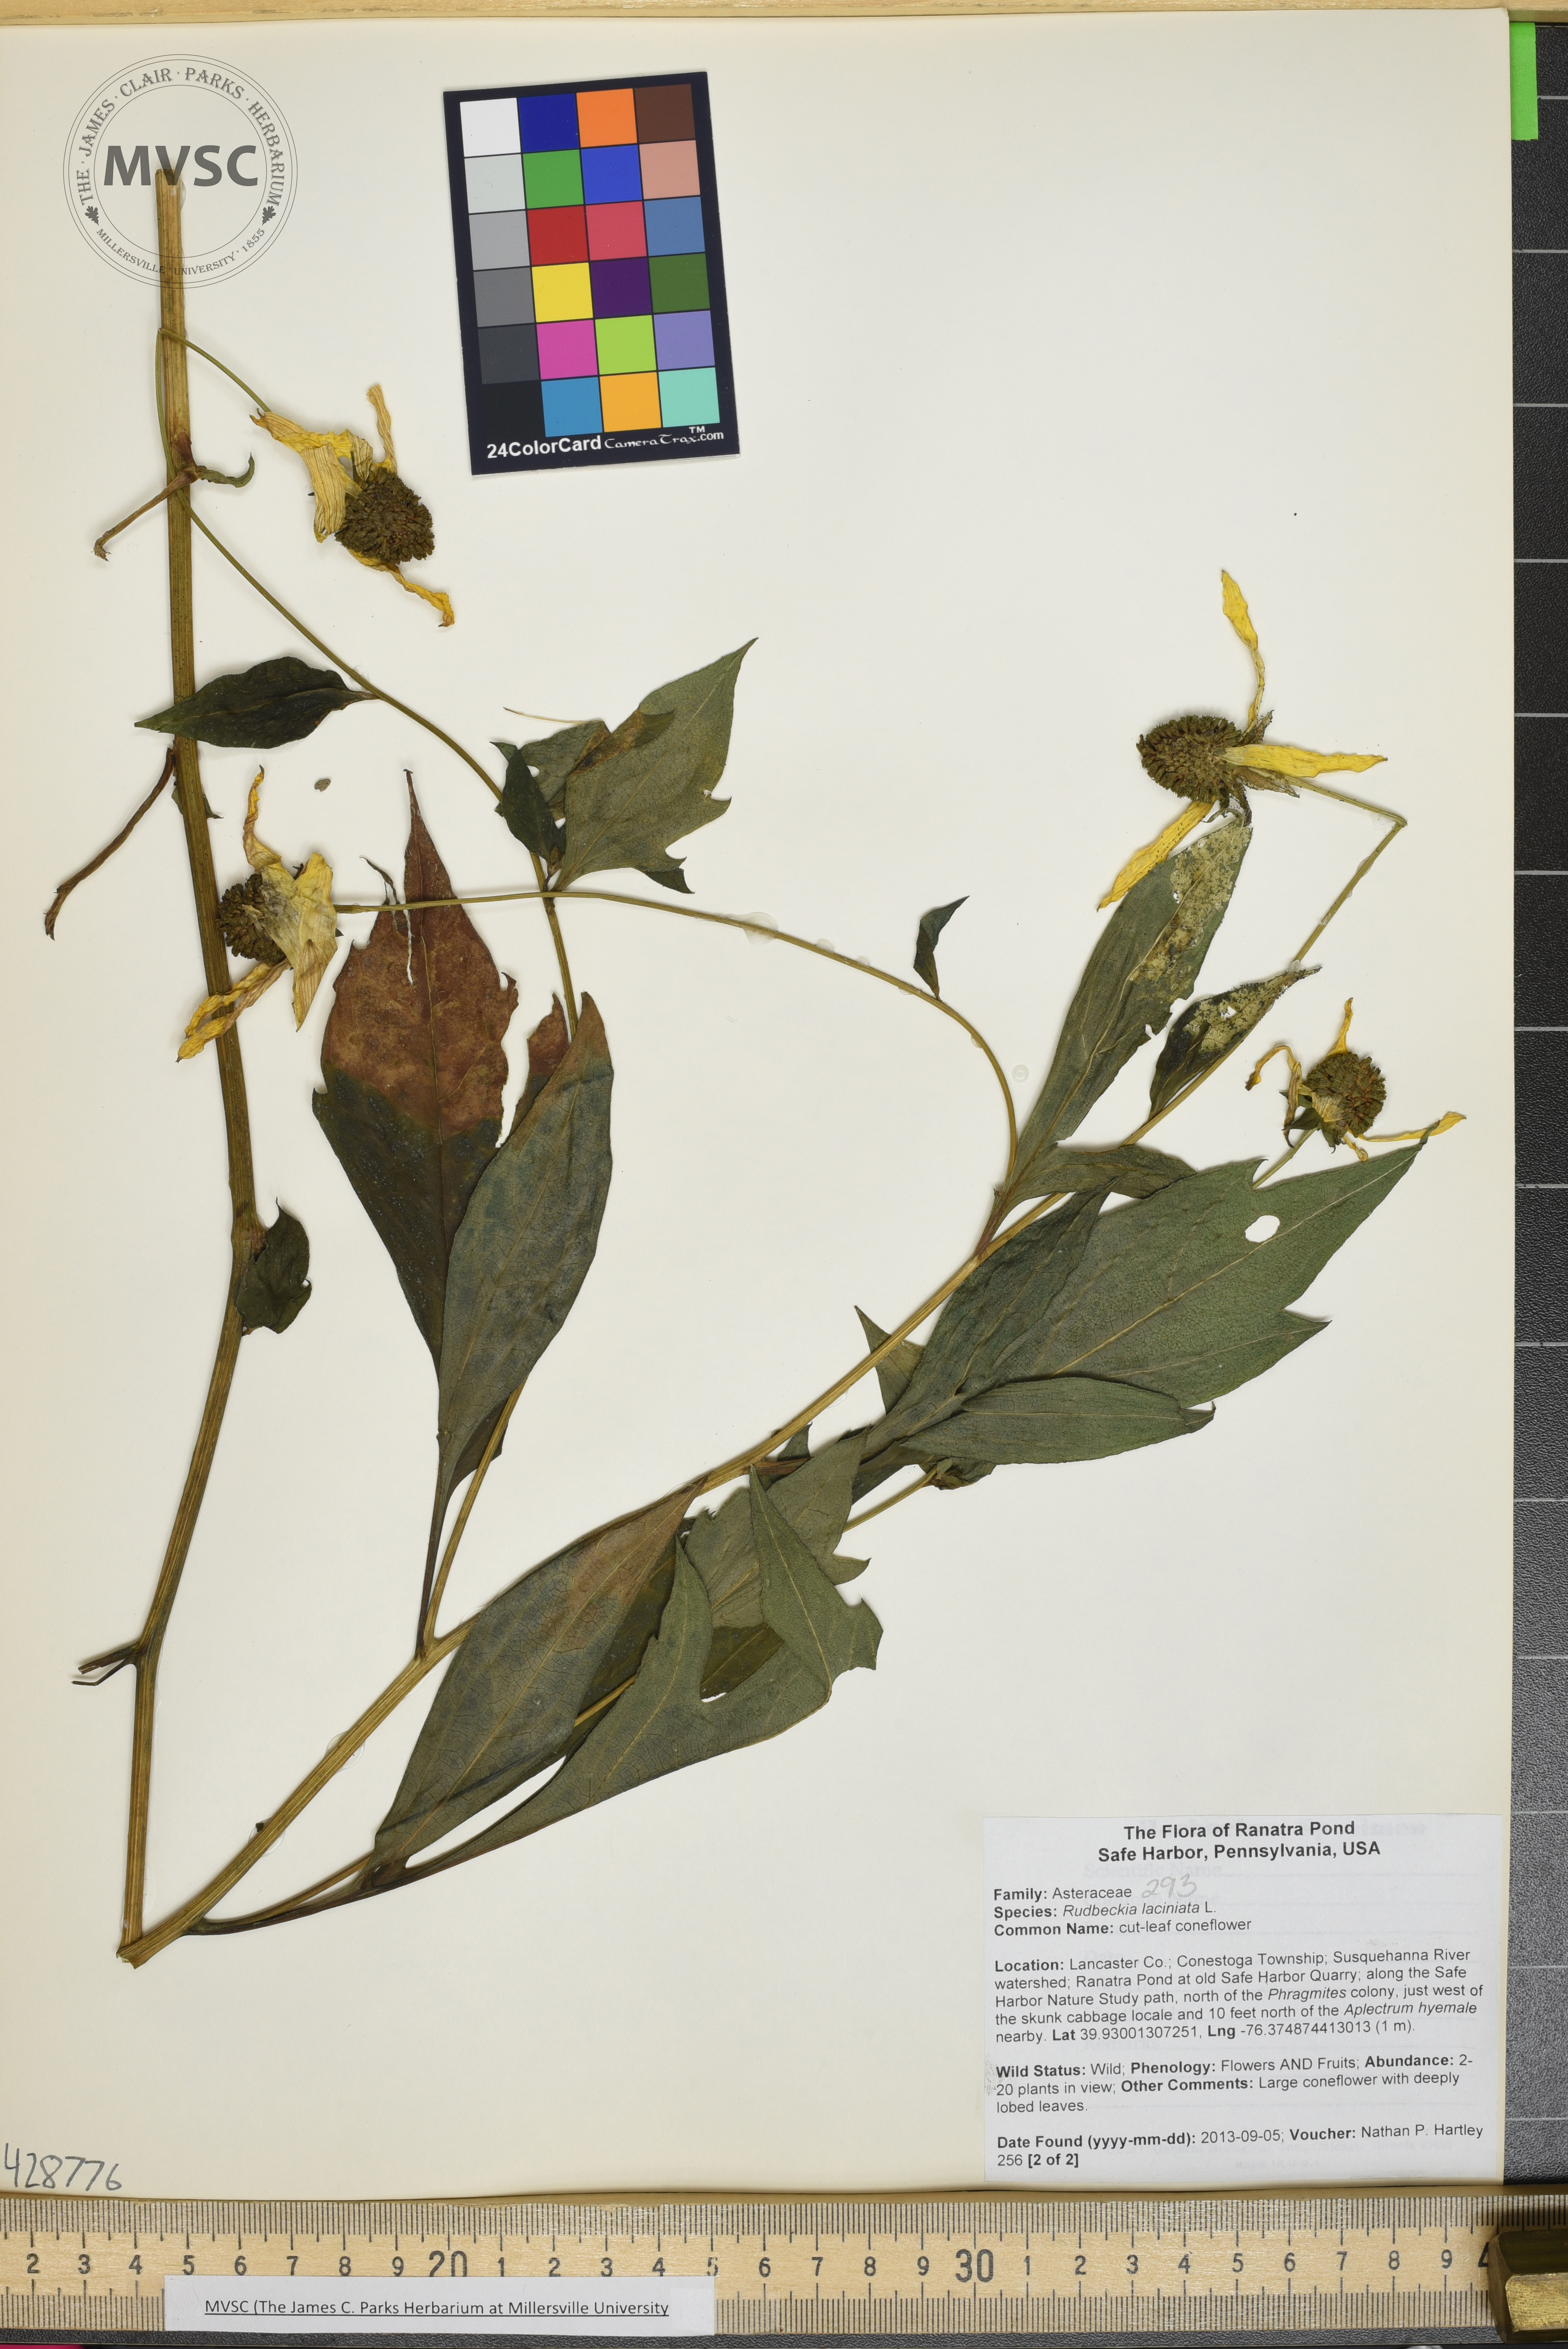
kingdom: Plantae
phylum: Tracheophyta
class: Magnoliopsida
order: Asterales
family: Asteraceae
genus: Rudbeckia
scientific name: Rudbeckia laciniata
